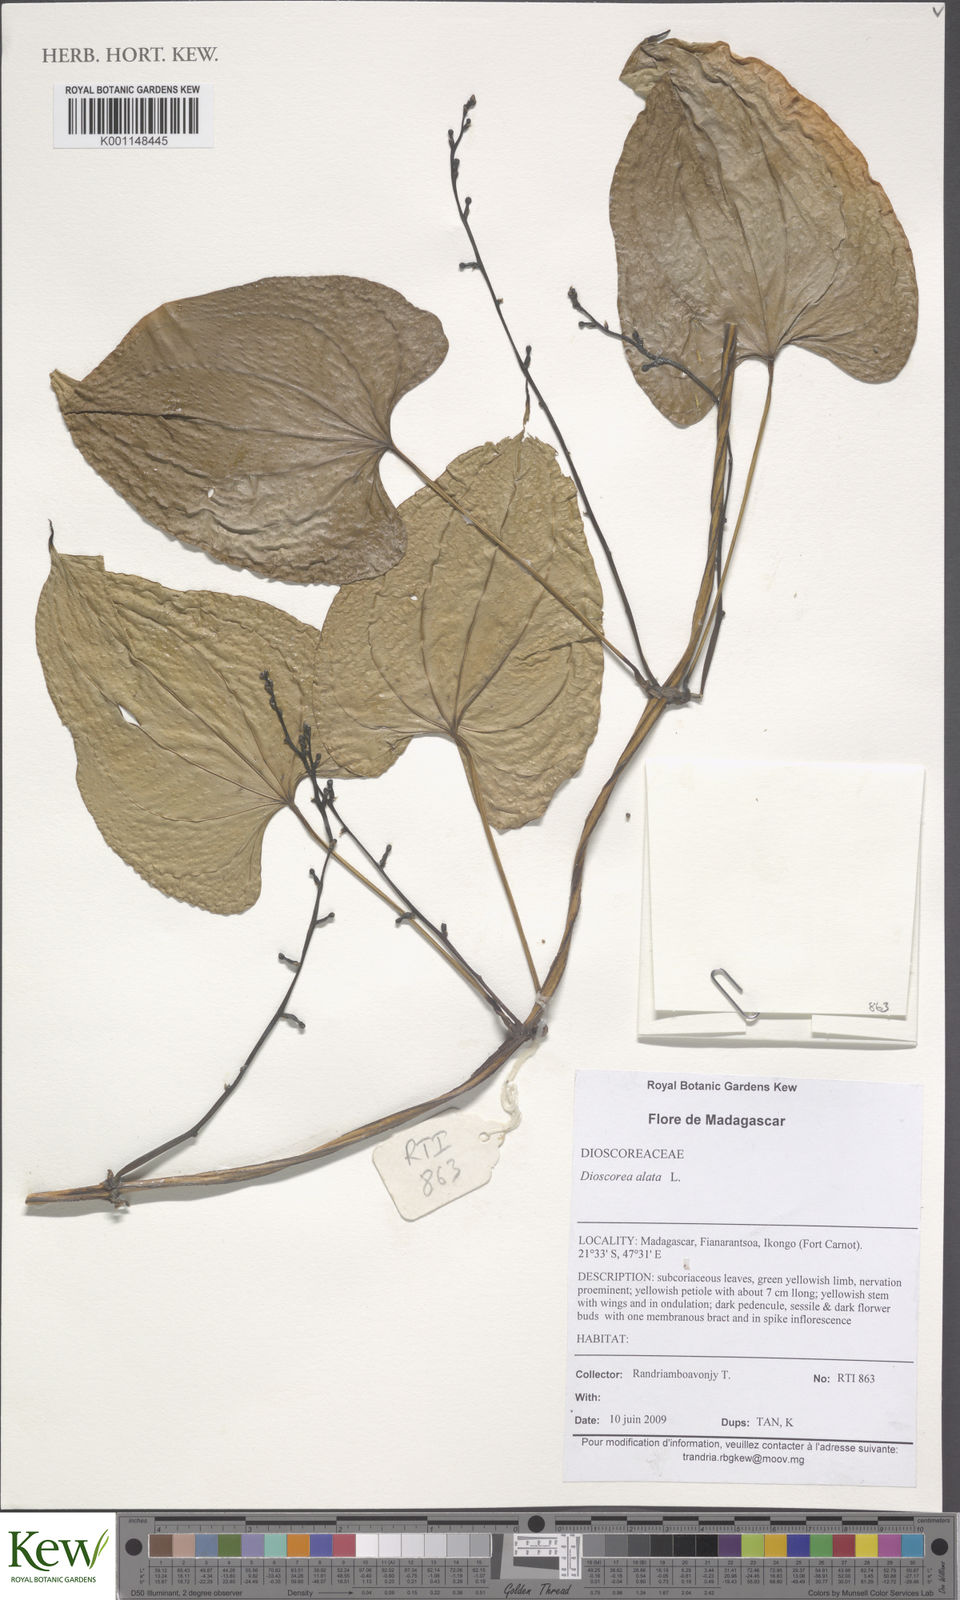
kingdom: Plantae
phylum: Tracheophyta
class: Liliopsida
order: Dioscoreales
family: Dioscoreaceae
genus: Dioscorea
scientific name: Dioscorea alata
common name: Water yam
